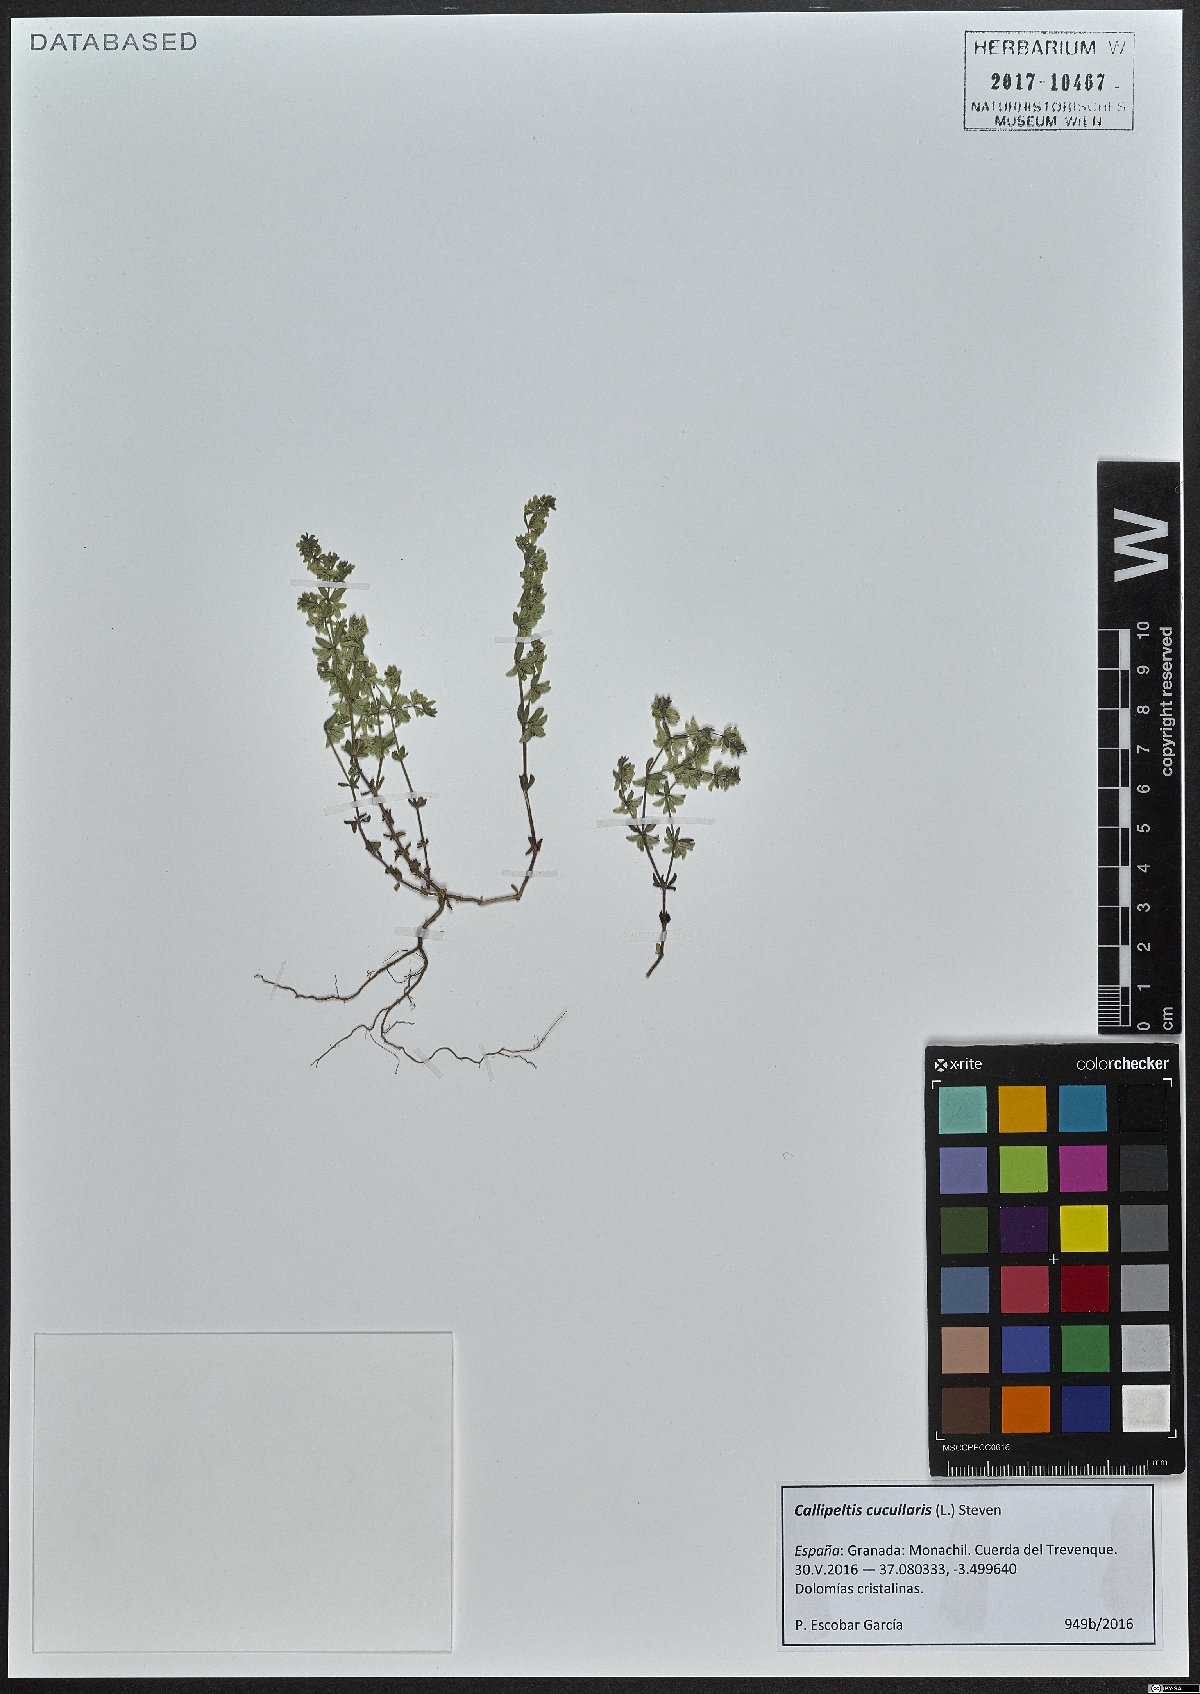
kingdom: Plantae
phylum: Tracheophyta
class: Magnoliopsida
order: Gentianales
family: Rubiaceae
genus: Callipeltis
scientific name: Callipeltis cucullaris
